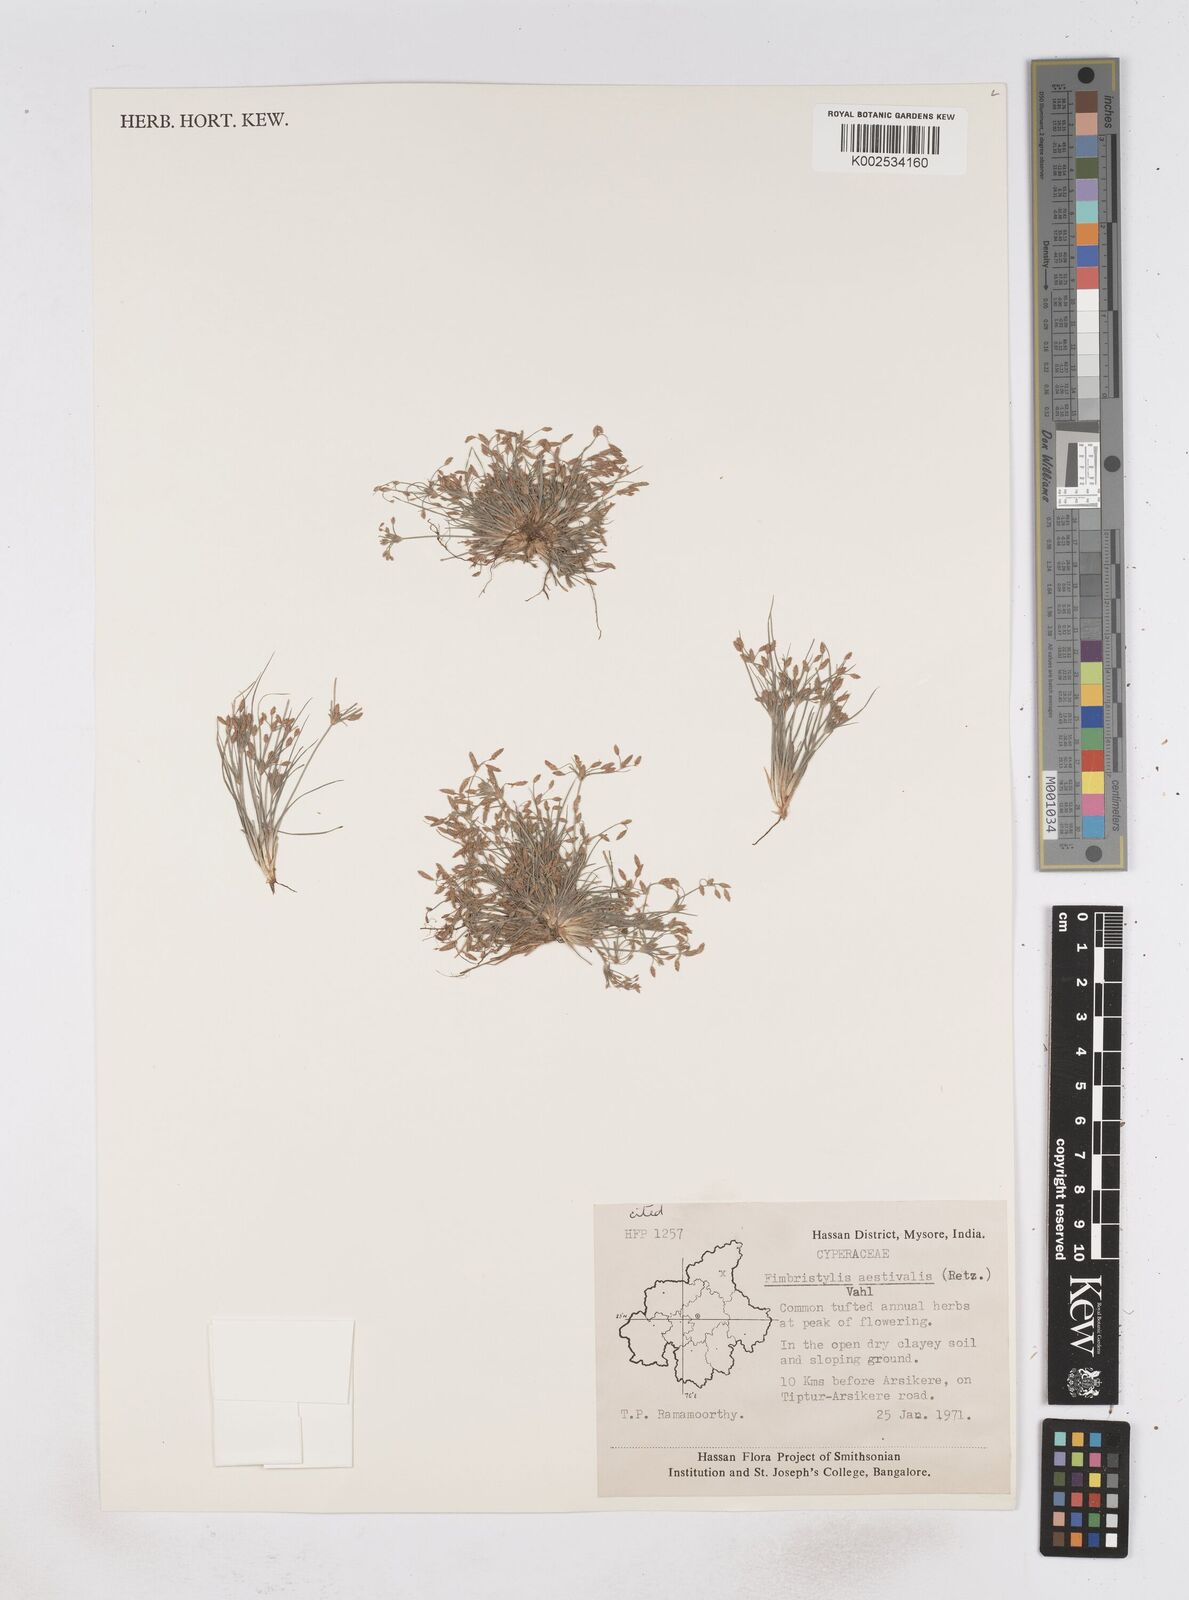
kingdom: Plantae
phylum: Tracheophyta
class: Liliopsida
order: Poales
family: Cyperaceae
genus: Fimbristylis
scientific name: Fimbristylis aestivalis
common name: Summer fimbry
